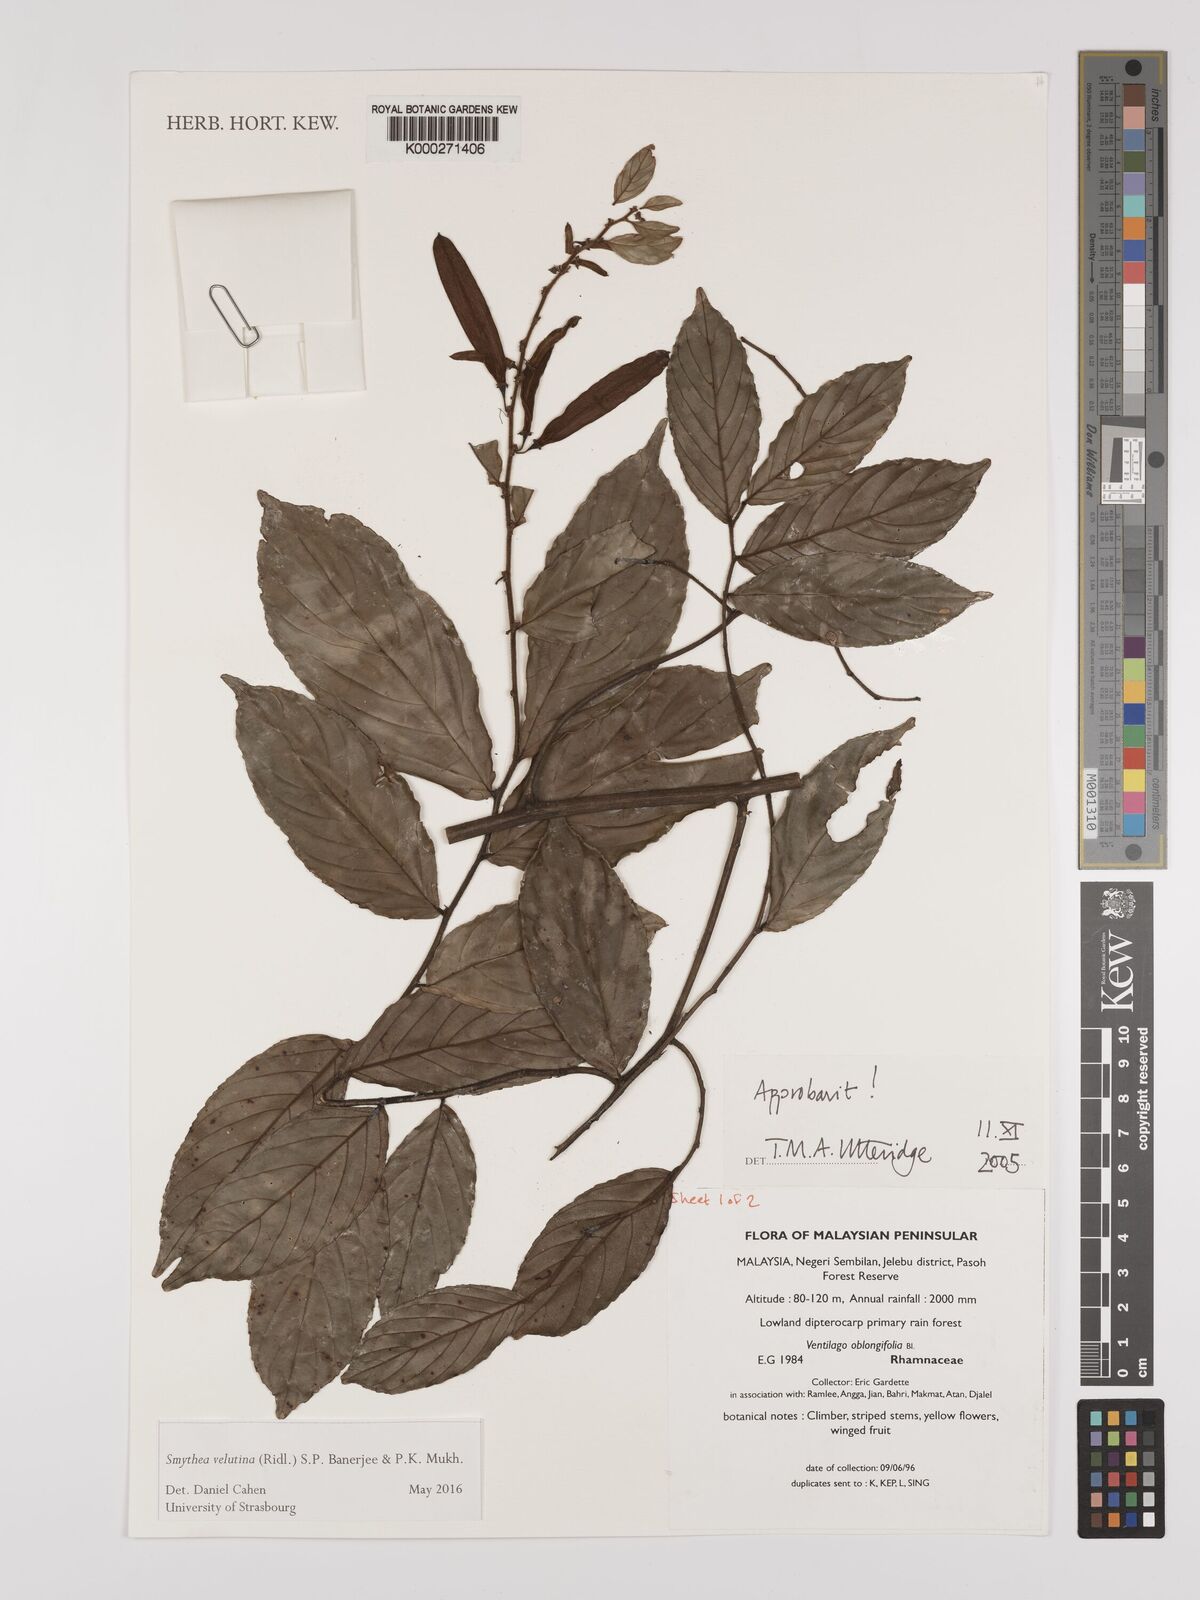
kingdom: Plantae
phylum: Tracheophyta
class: Magnoliopsida
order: Rosales
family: Rhamnaceae
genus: Smythea
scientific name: Smythea oblongifolia
